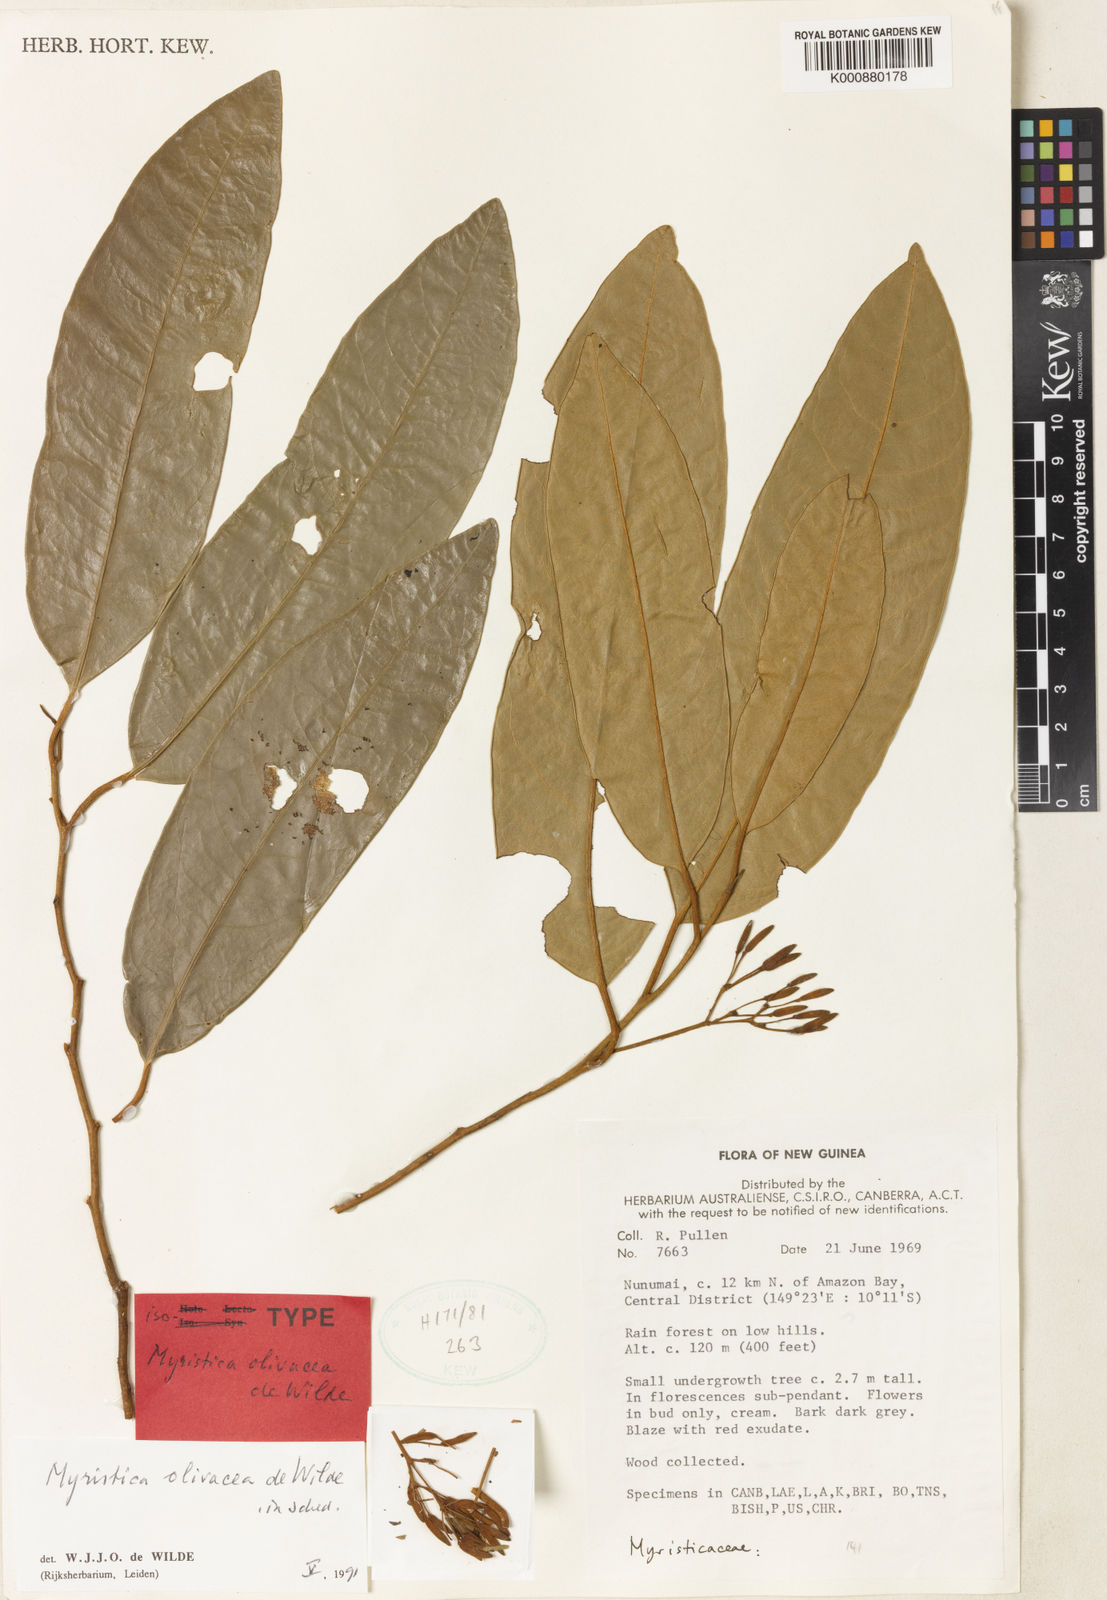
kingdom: Plantae
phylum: Tracheophyta
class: Magnoliopsida
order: Magnoliales
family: Myristicaceae
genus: Myristica
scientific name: Myristica olivacea
